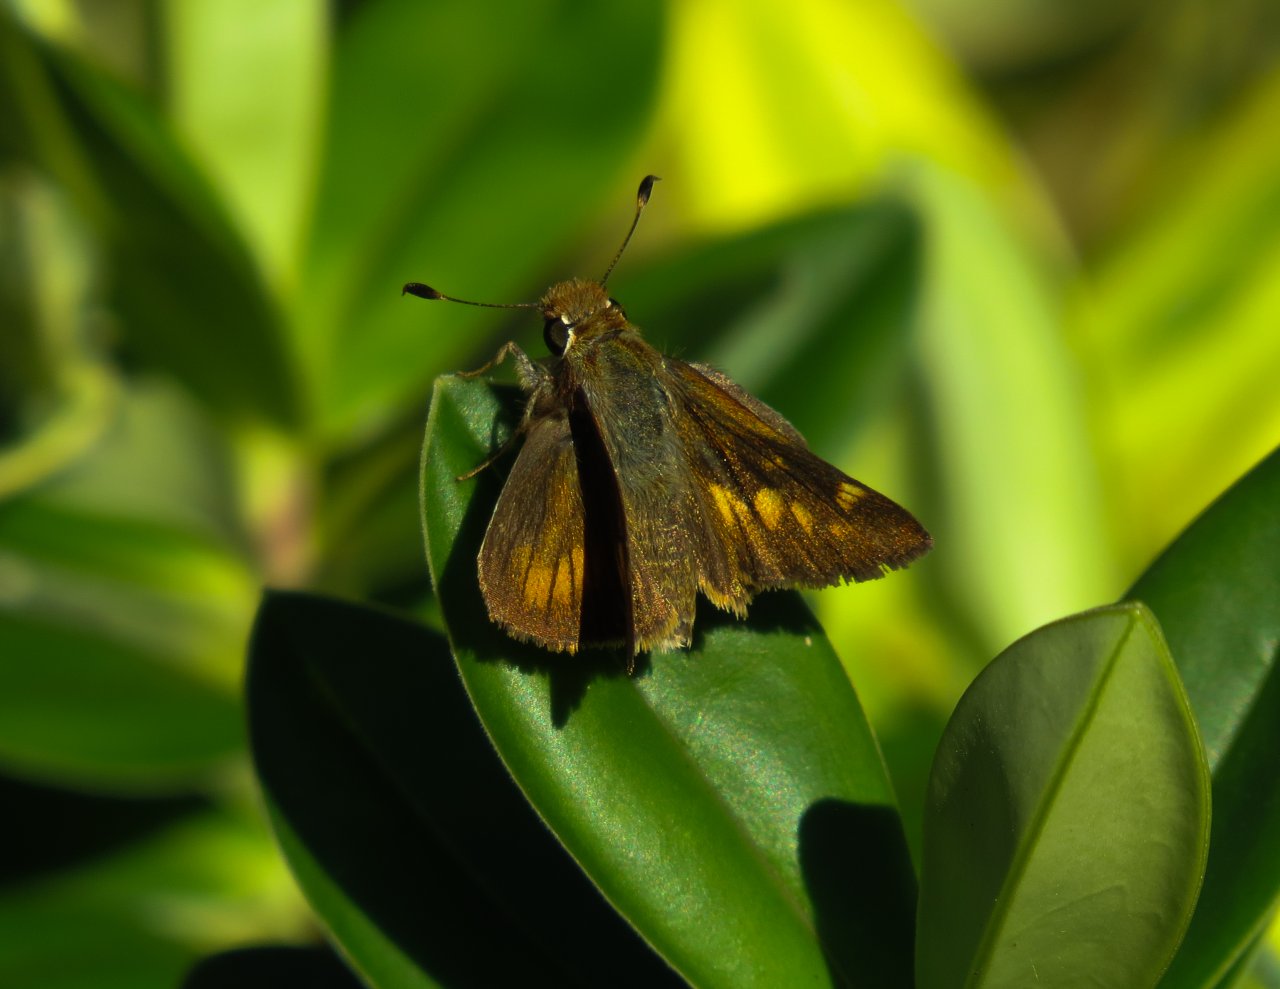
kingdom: Animalia
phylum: Arthropoda
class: Insecta
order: Lepidoptera
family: Hesperiidae
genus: Lon
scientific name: Lon melane
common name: Umber Skipper
